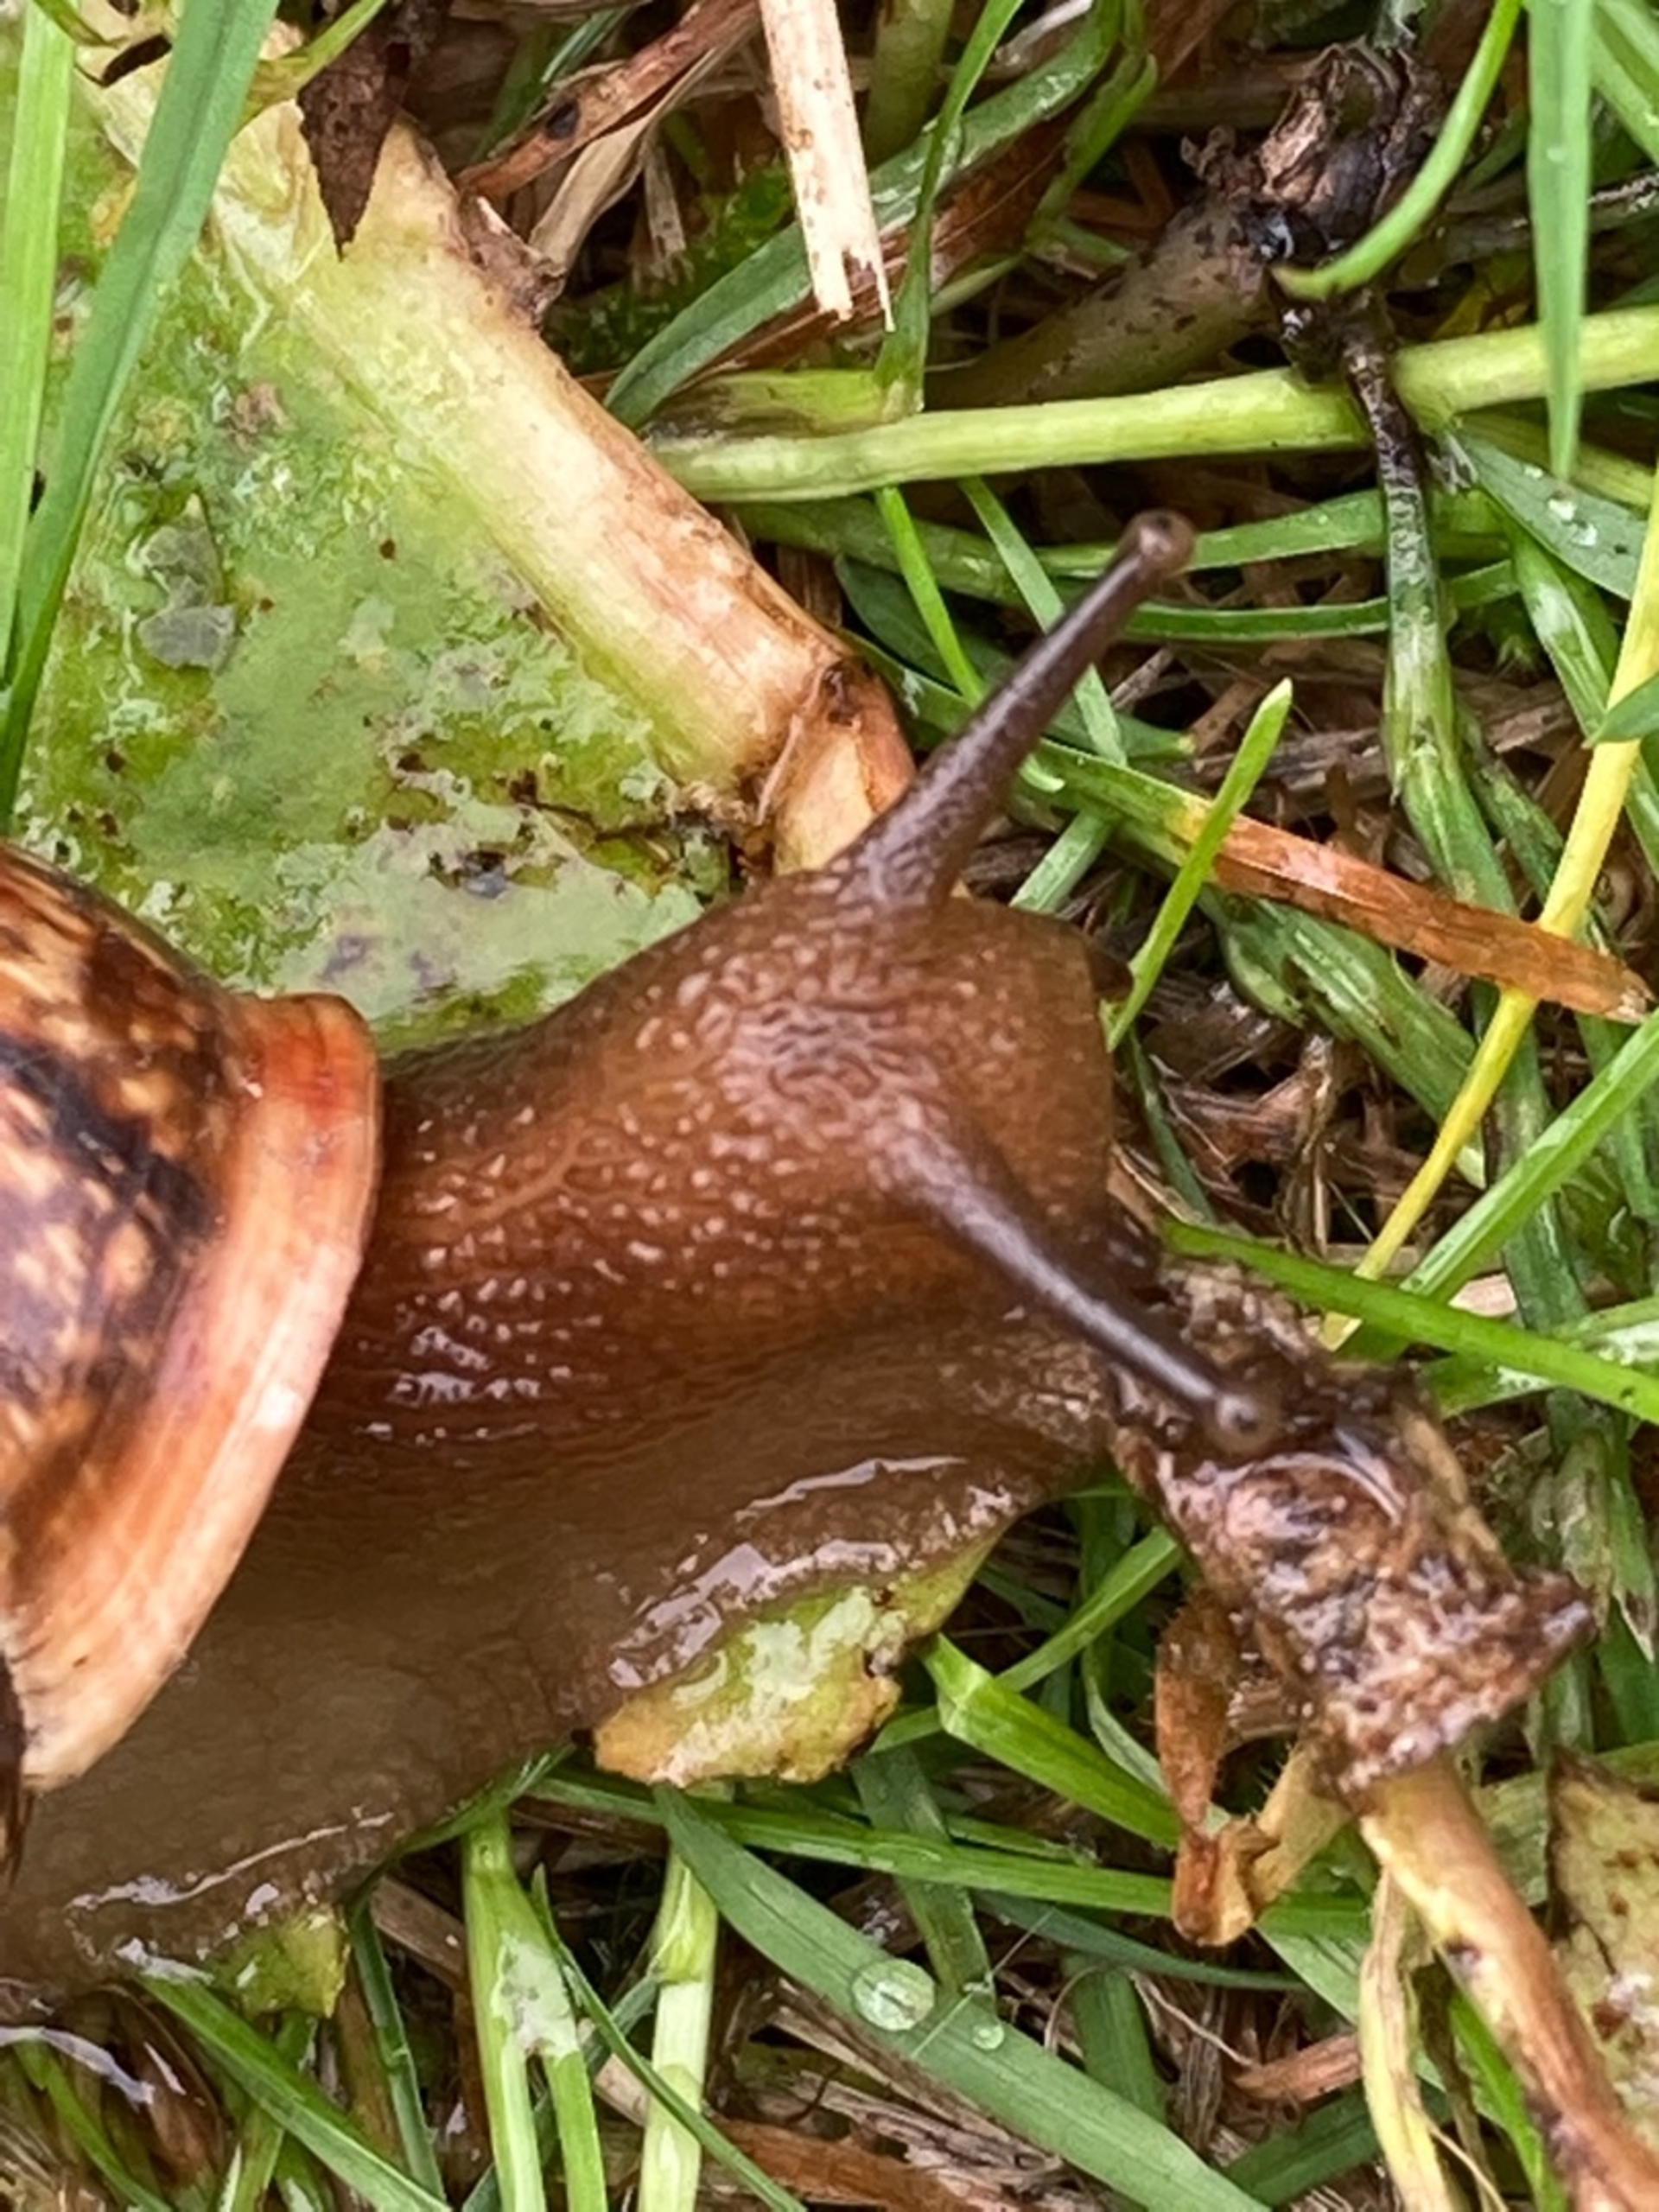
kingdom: Animalia
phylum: Mollusca
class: Gastropoda
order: Stylommatophora
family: Helicidae
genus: Arianta
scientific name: Arianta arbustorum
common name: Kratsnegl
